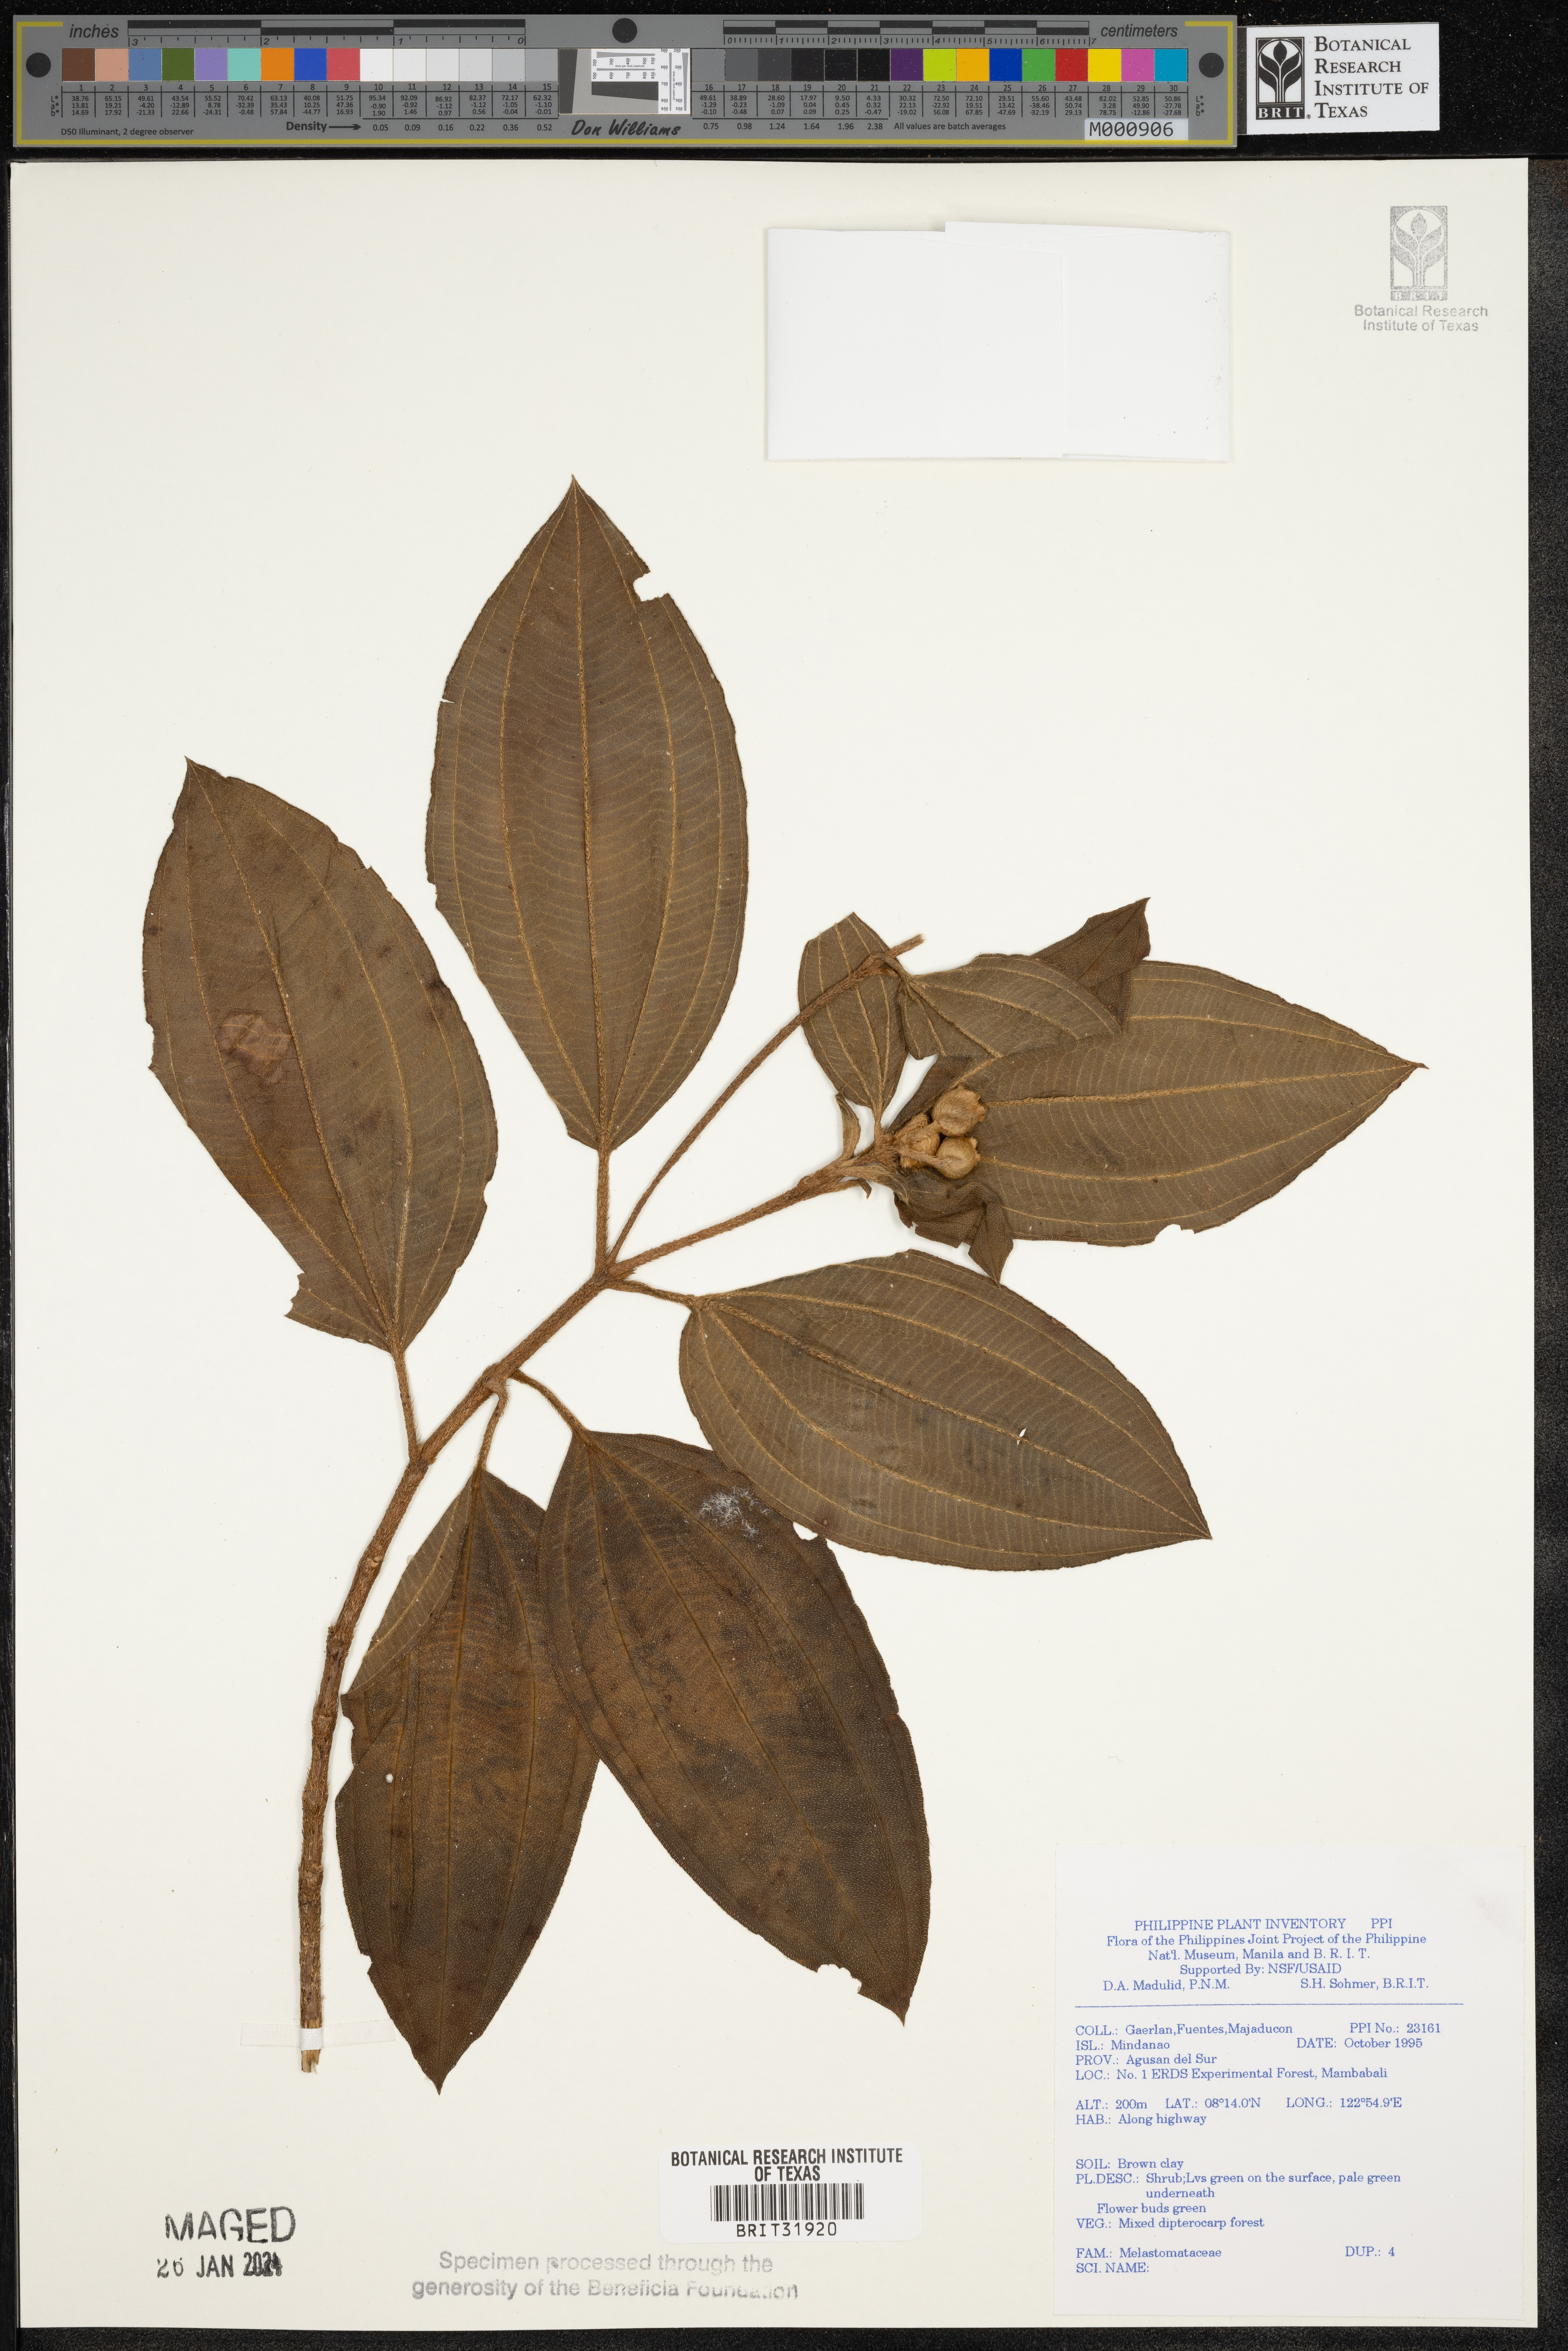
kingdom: Plantae
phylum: Tracheophyta
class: Magnoliopsida
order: Myrtales
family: Melastomataceae
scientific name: Melastomataceae
